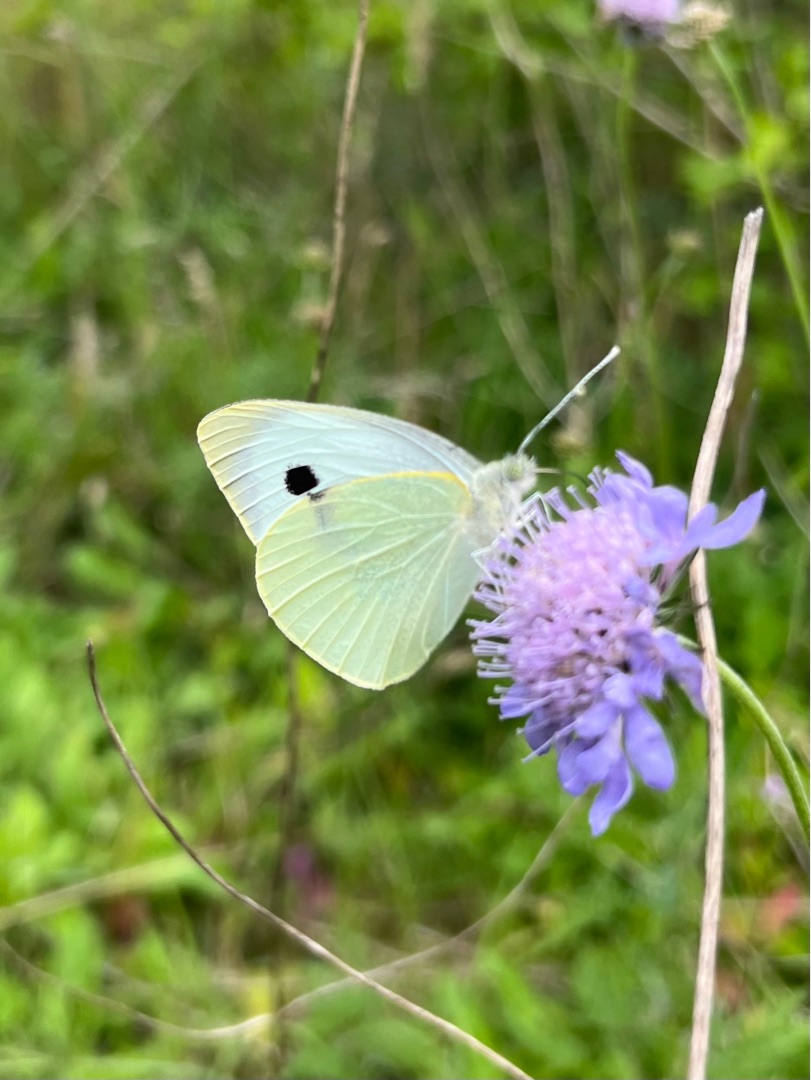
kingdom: Animalia
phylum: Arthropoda
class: Insecta
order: Lepidoptera
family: Pieridae
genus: Pieris
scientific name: Pieris brassicae
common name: Stor kålsommerfugl
